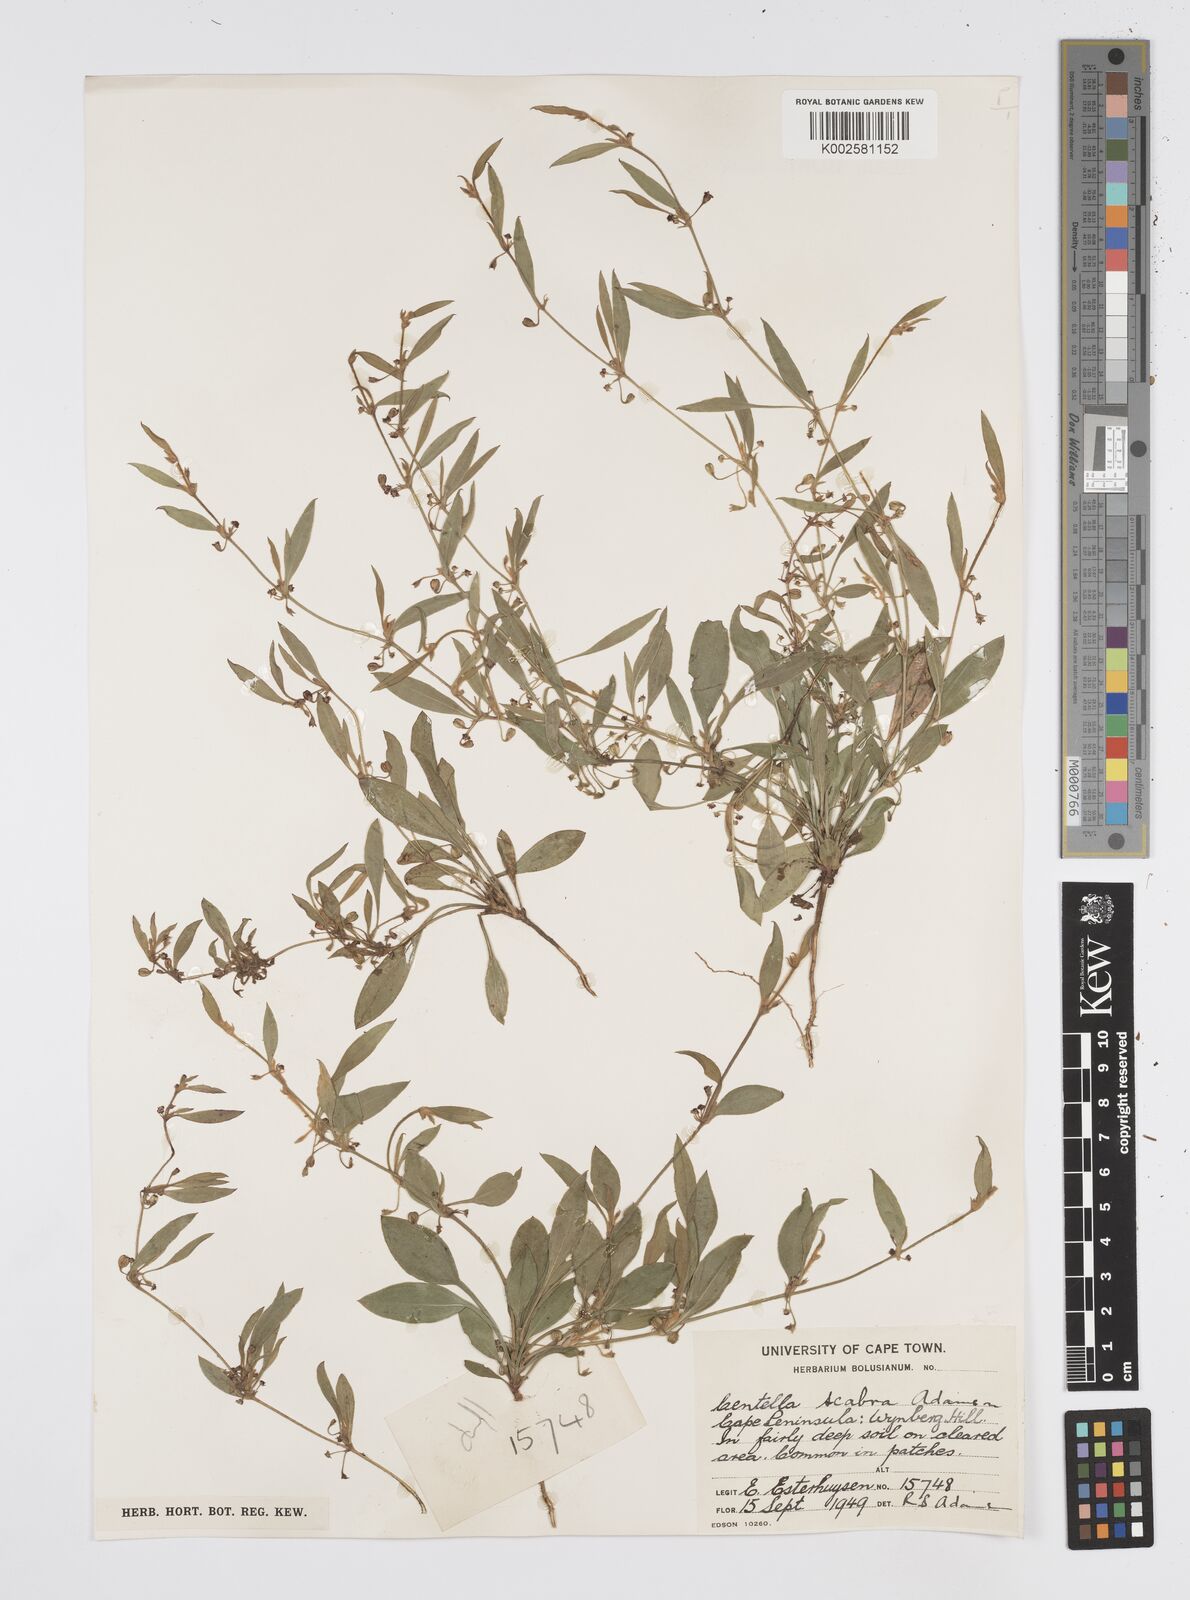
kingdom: Plantae
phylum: Tracheophyta
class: Magnoliopsida
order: Apiales
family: Apiaceae
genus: Centella
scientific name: Centella scabra
